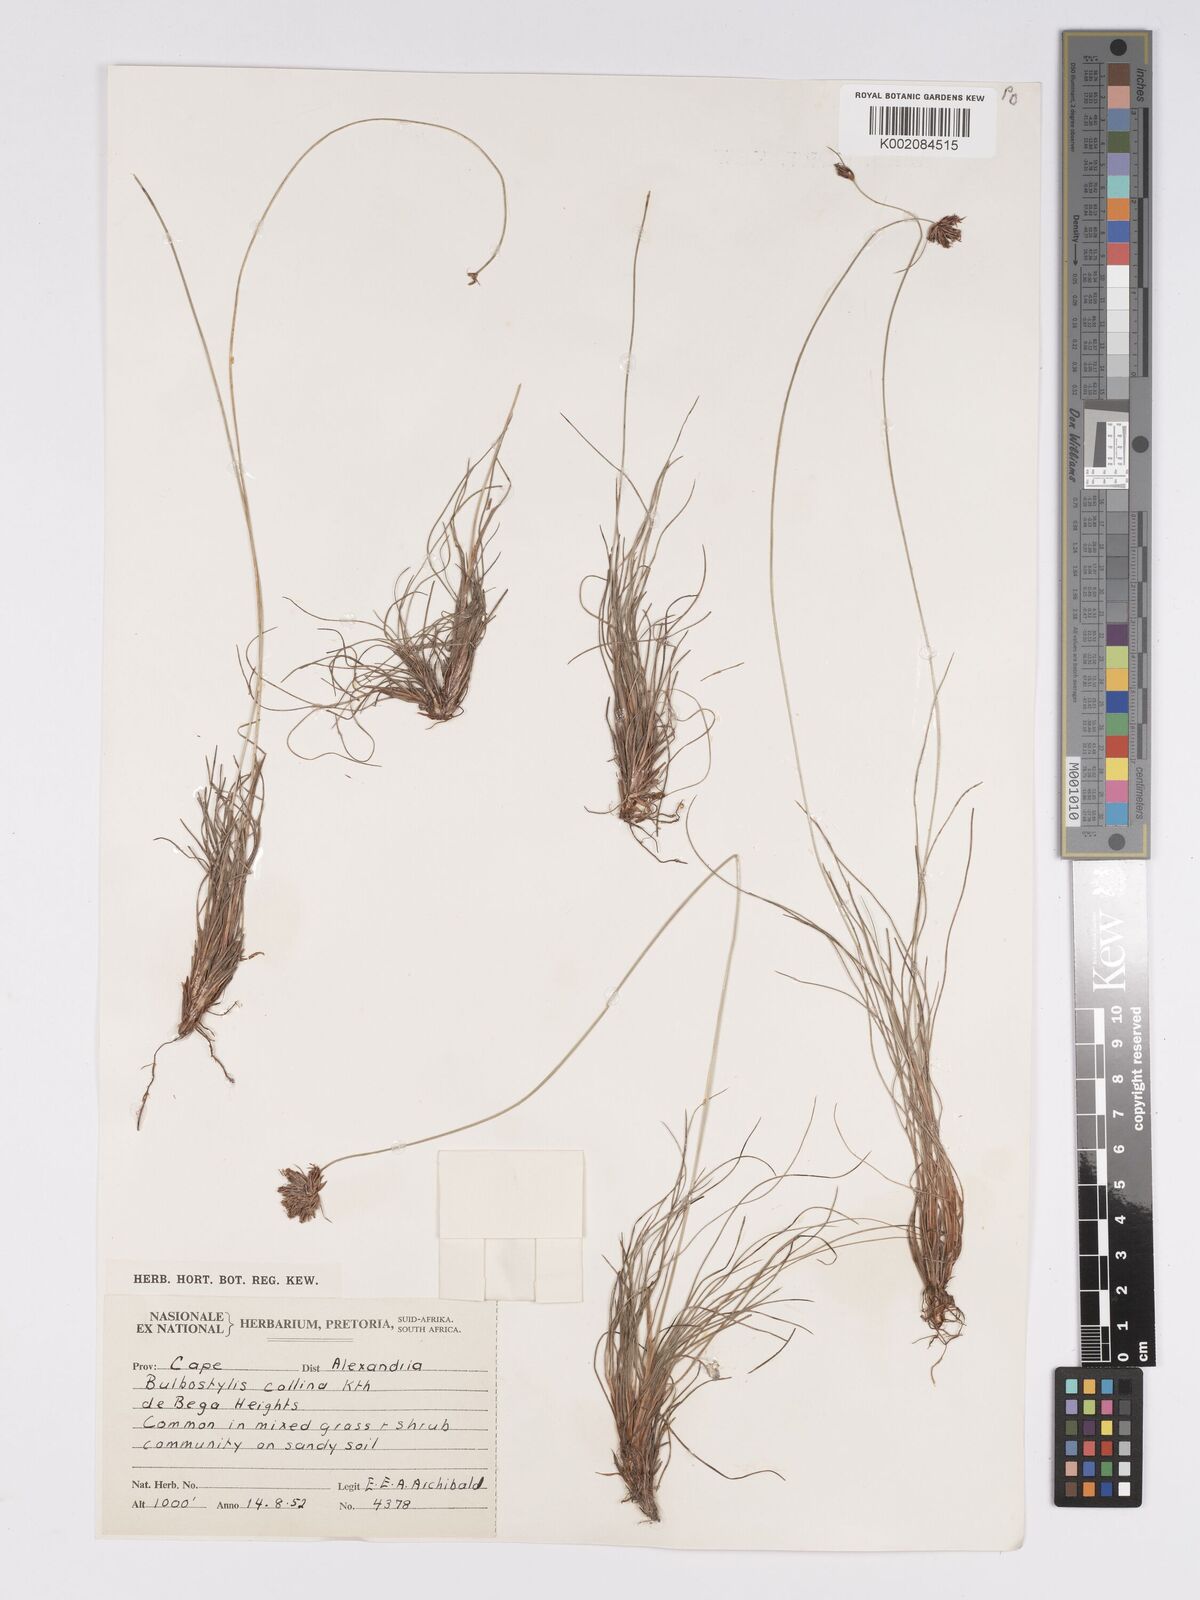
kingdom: Plantae
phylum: Tracheophyta
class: Liliopsida
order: Poales
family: Cyperaceae
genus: Bulbostylis
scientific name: Bulbostylis contexta
